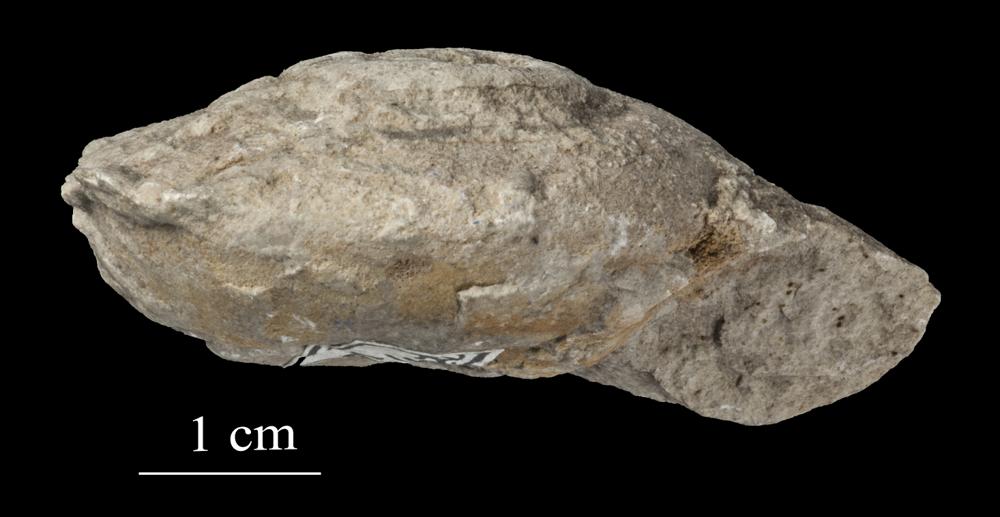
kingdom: Animalia
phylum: Mollusca
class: Gastropoda
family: Euomphalidae
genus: Euomphalus
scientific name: Euomphalus
